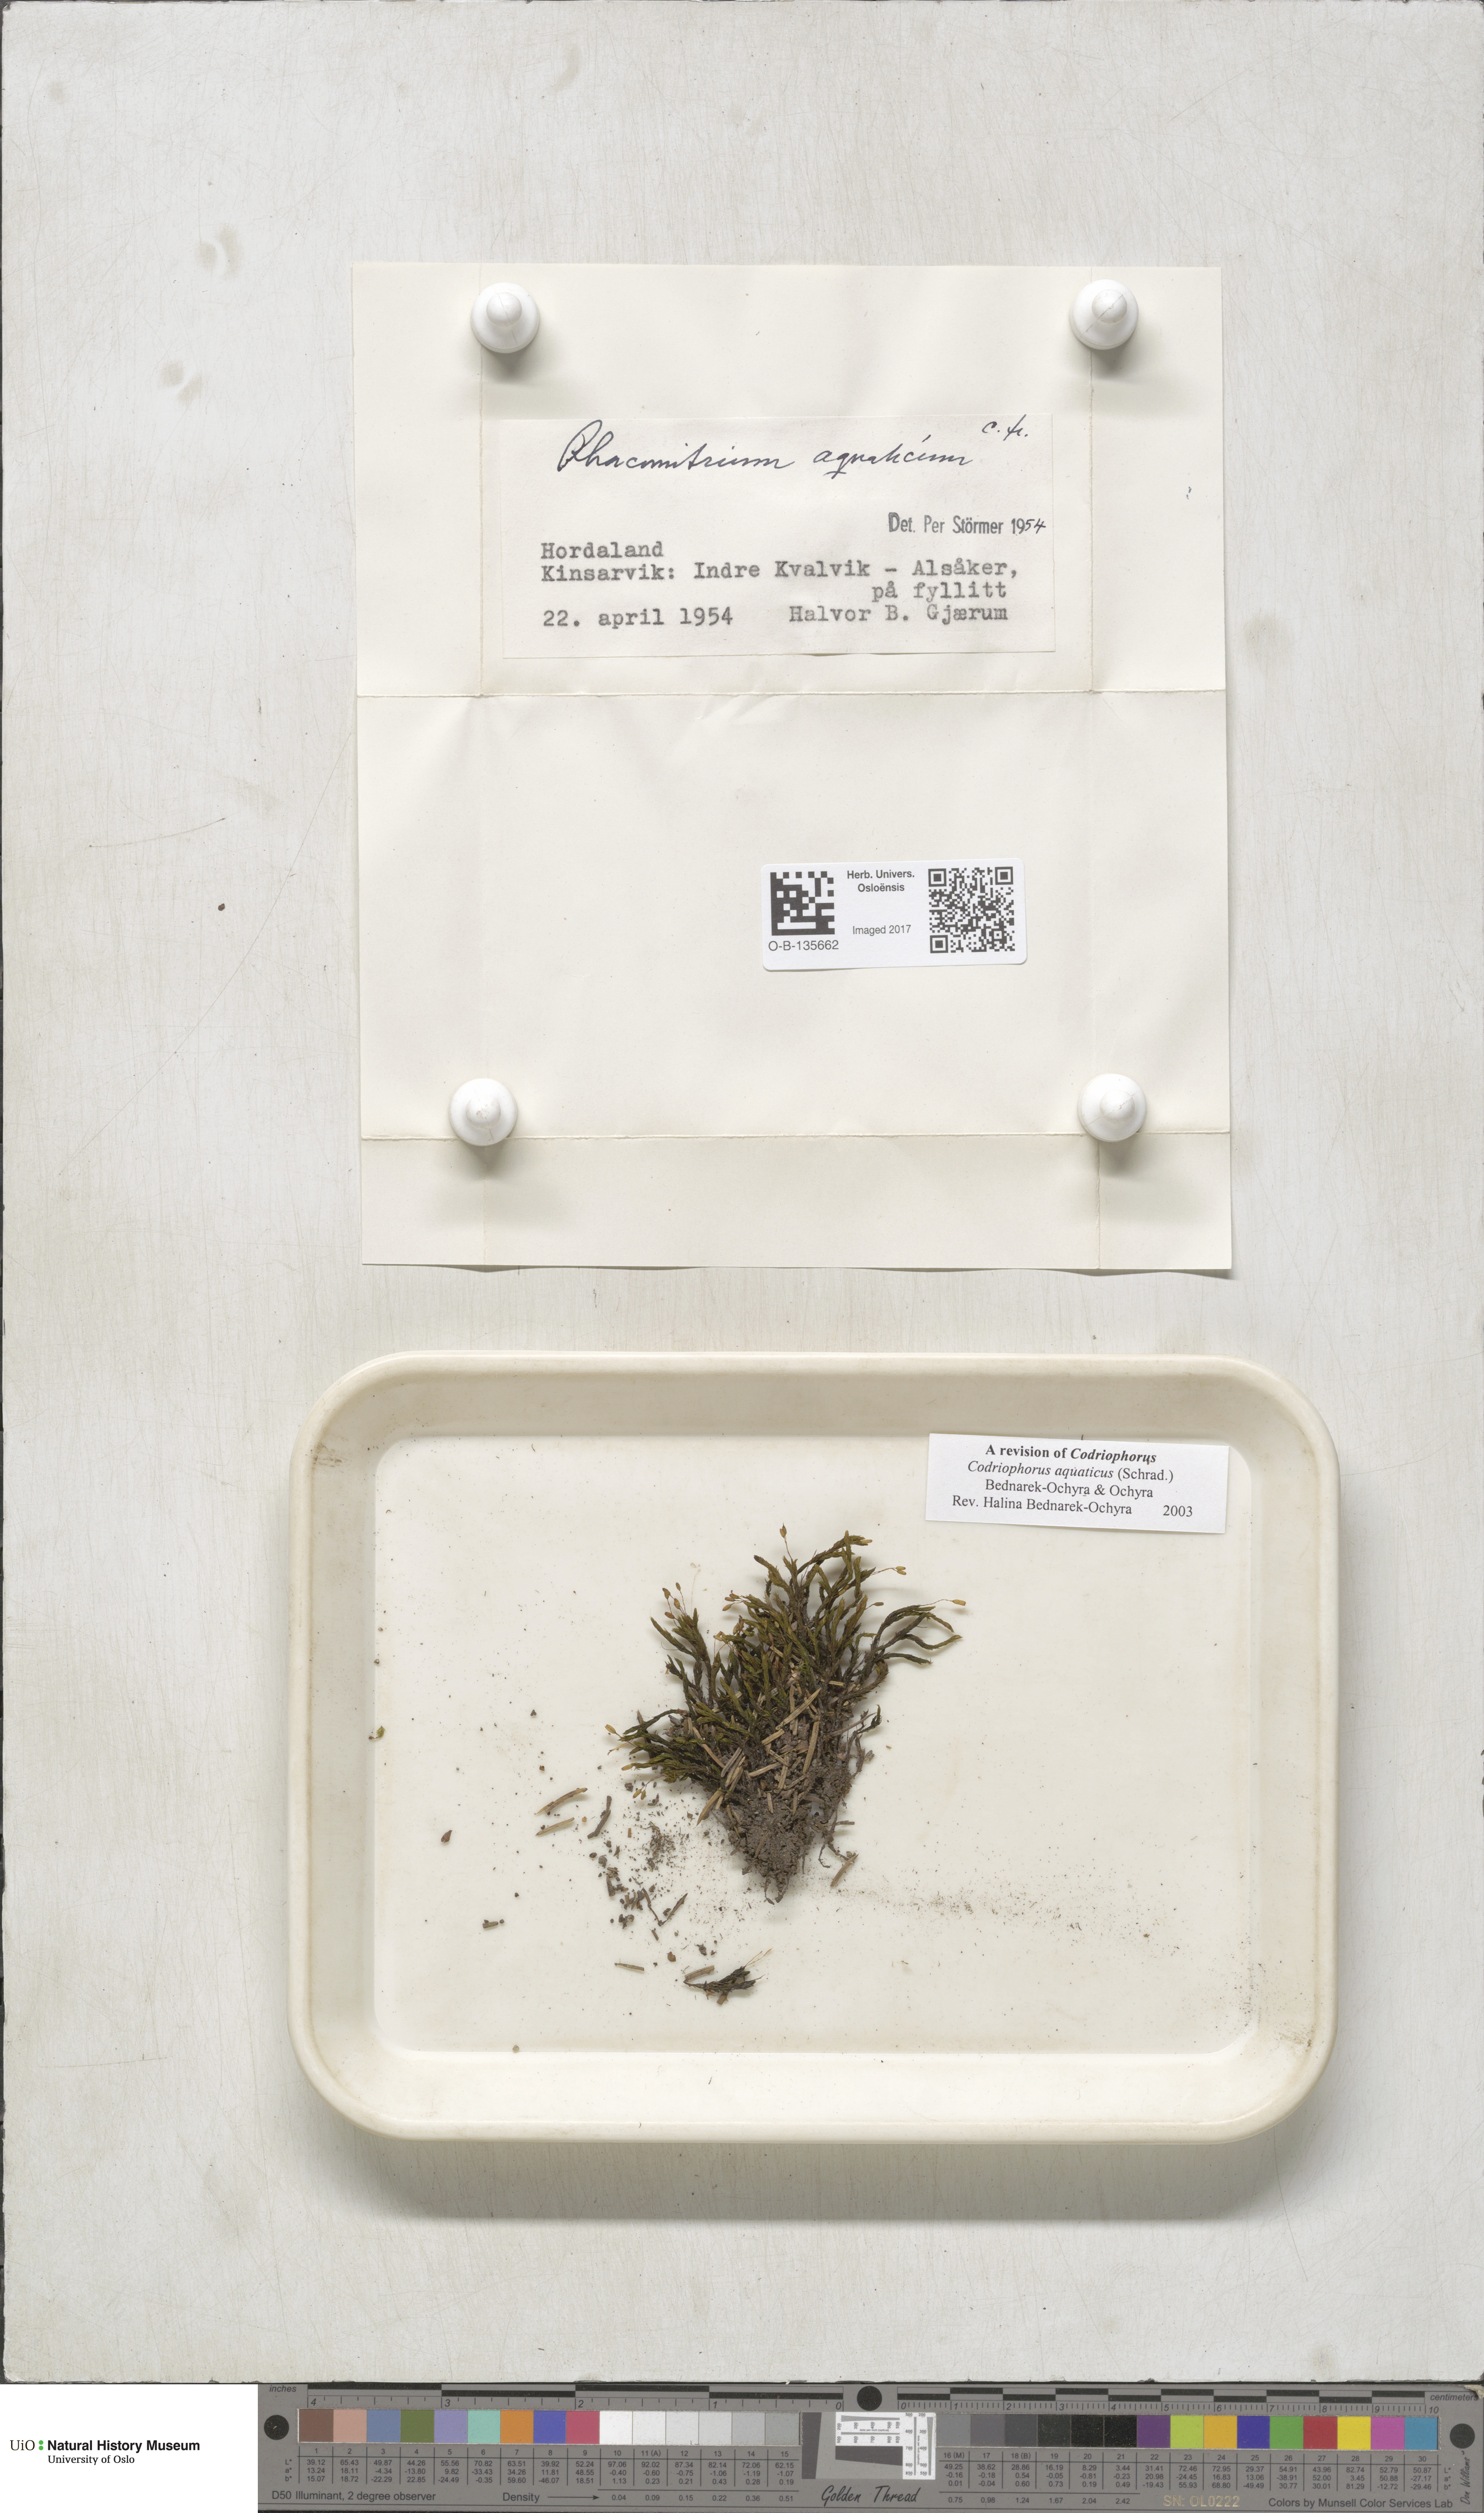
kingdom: Plantae
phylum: Bryophyta
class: Bryopsida
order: Grimmiales
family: Grimmiaceae
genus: Codriophorus
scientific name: Codriophorus aquaticus
